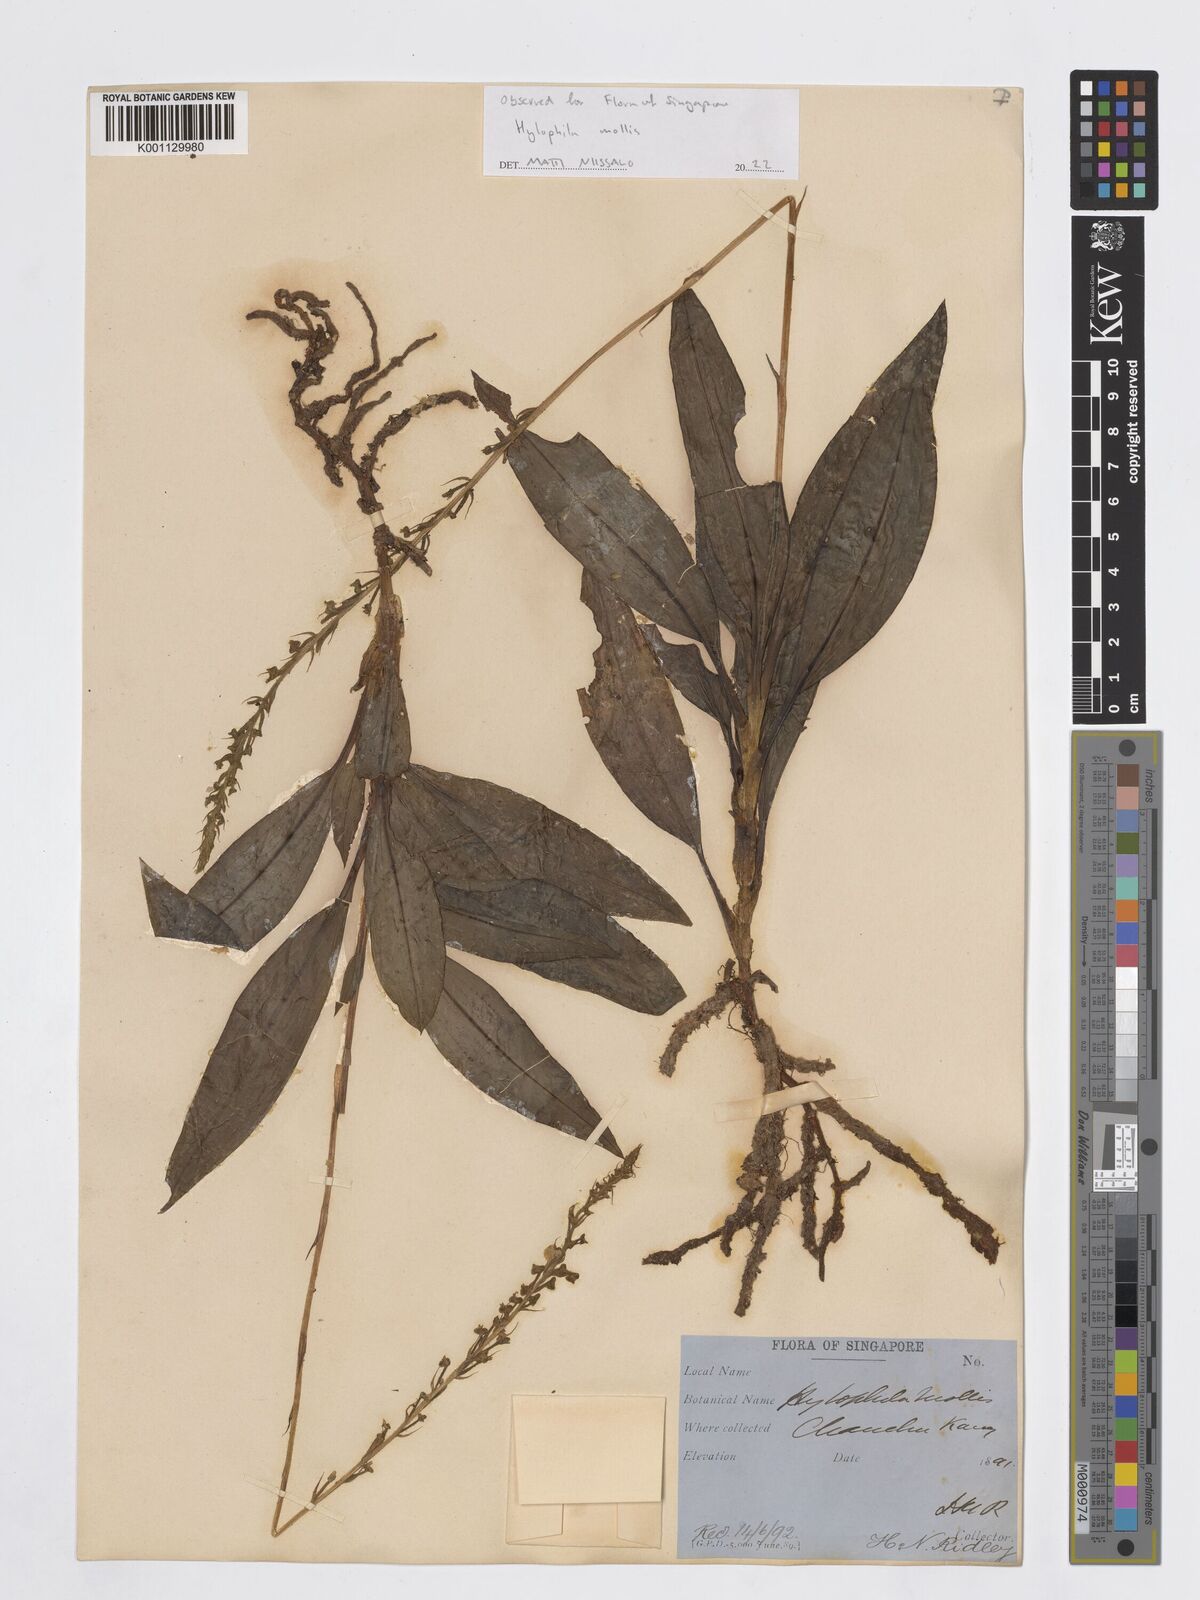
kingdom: Plantae
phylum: Tracheophyta
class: Liliopsida
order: Asparagales
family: Orchidaceae
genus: Hylophila
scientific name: Hylophila mollis
